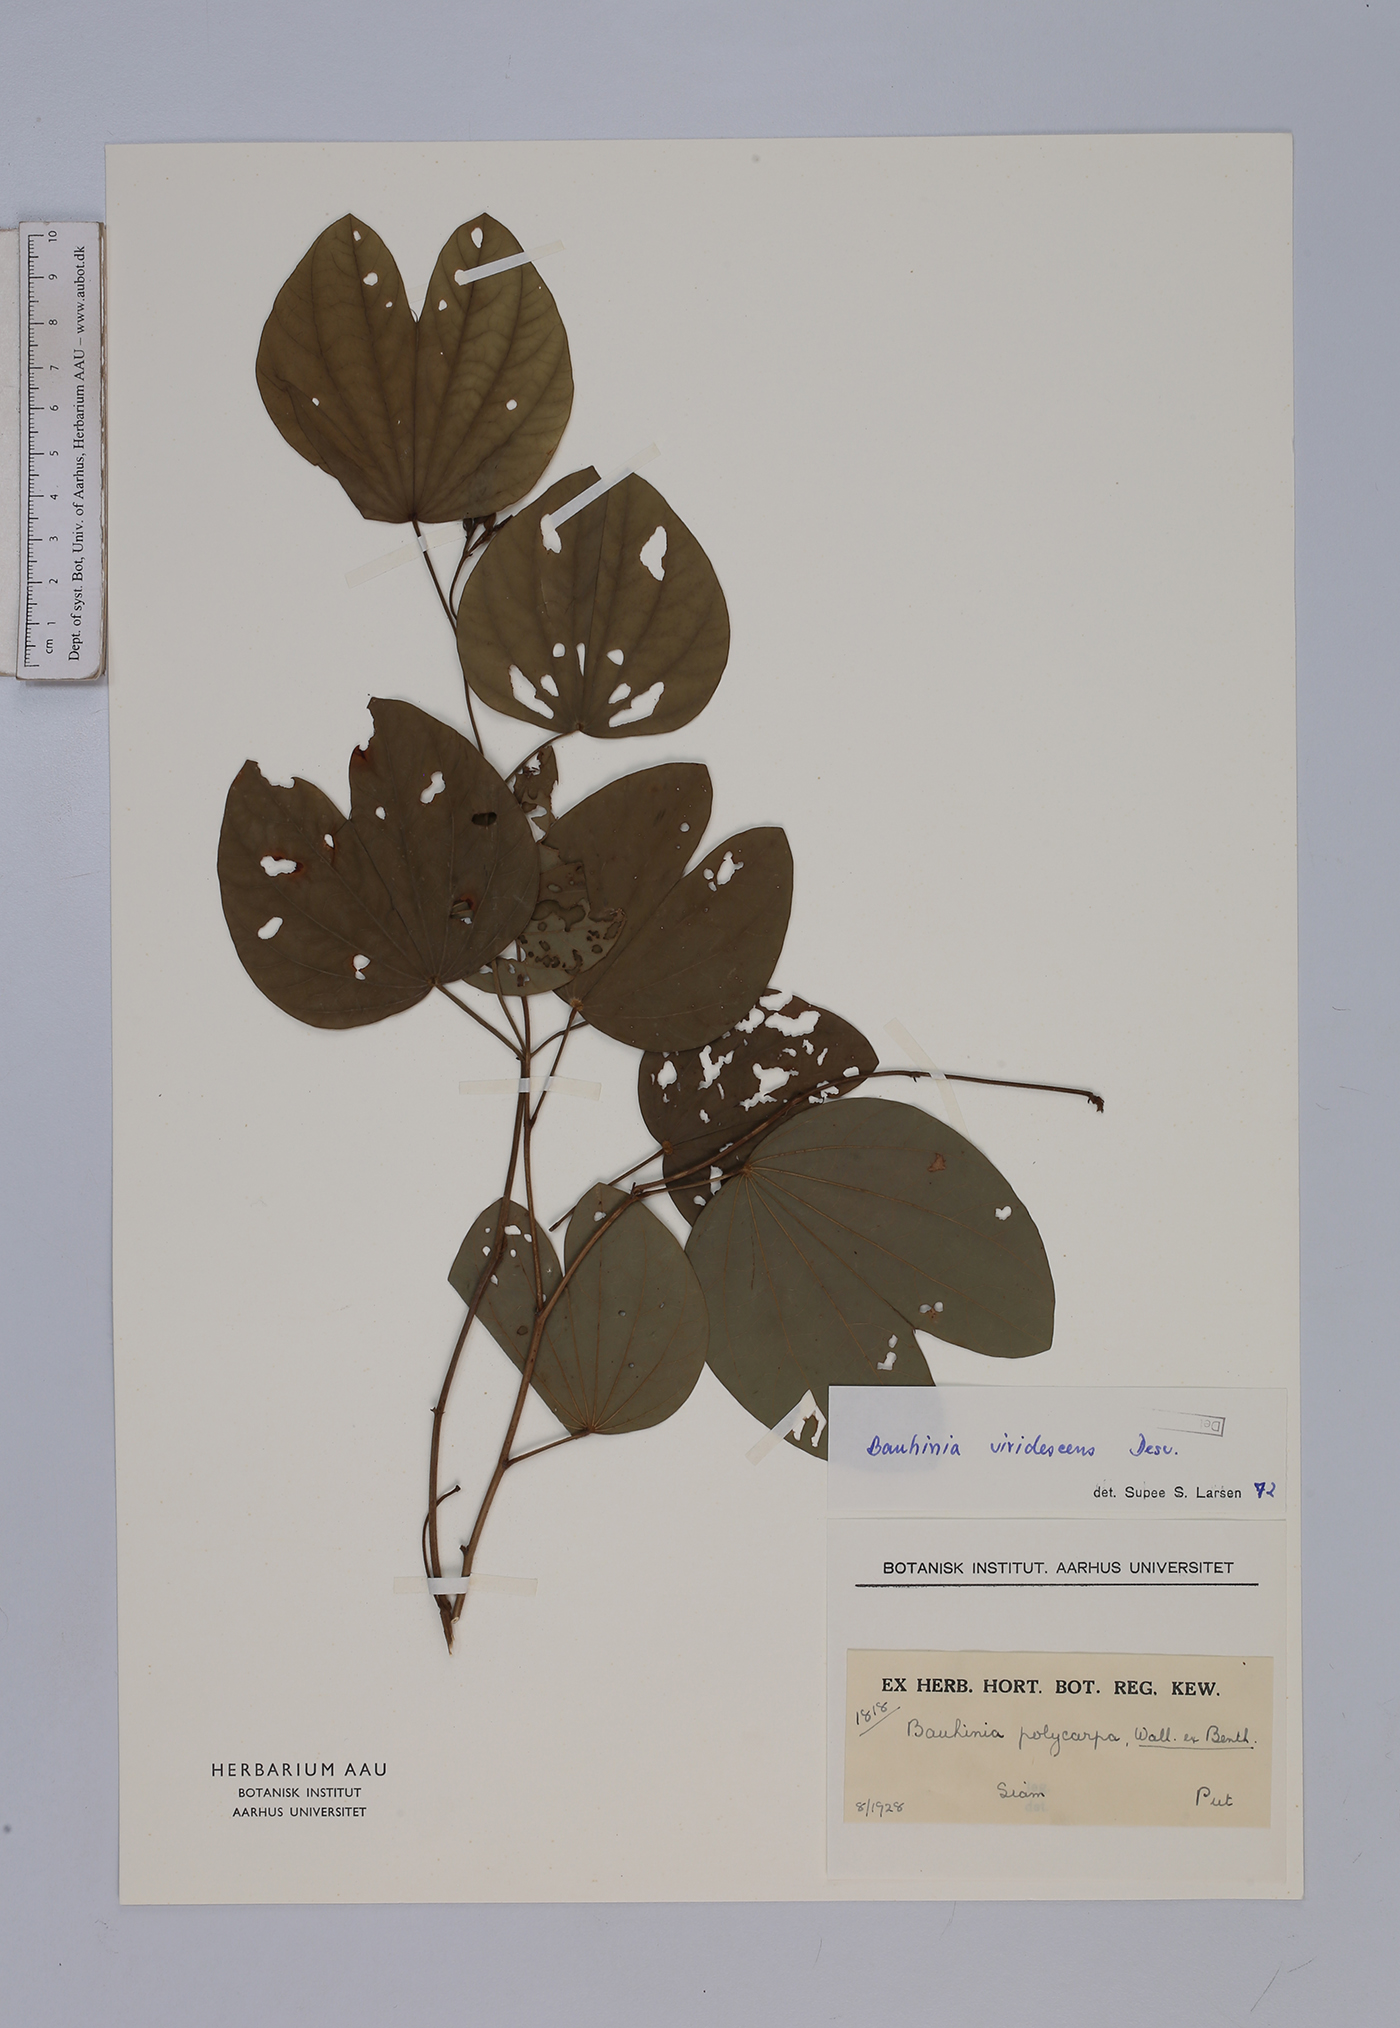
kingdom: Plantae
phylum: Tracheophyta
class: Magnoliopsida
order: Fabales
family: Fabaceae
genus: Bauhinia
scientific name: Bauhinia viridescens
